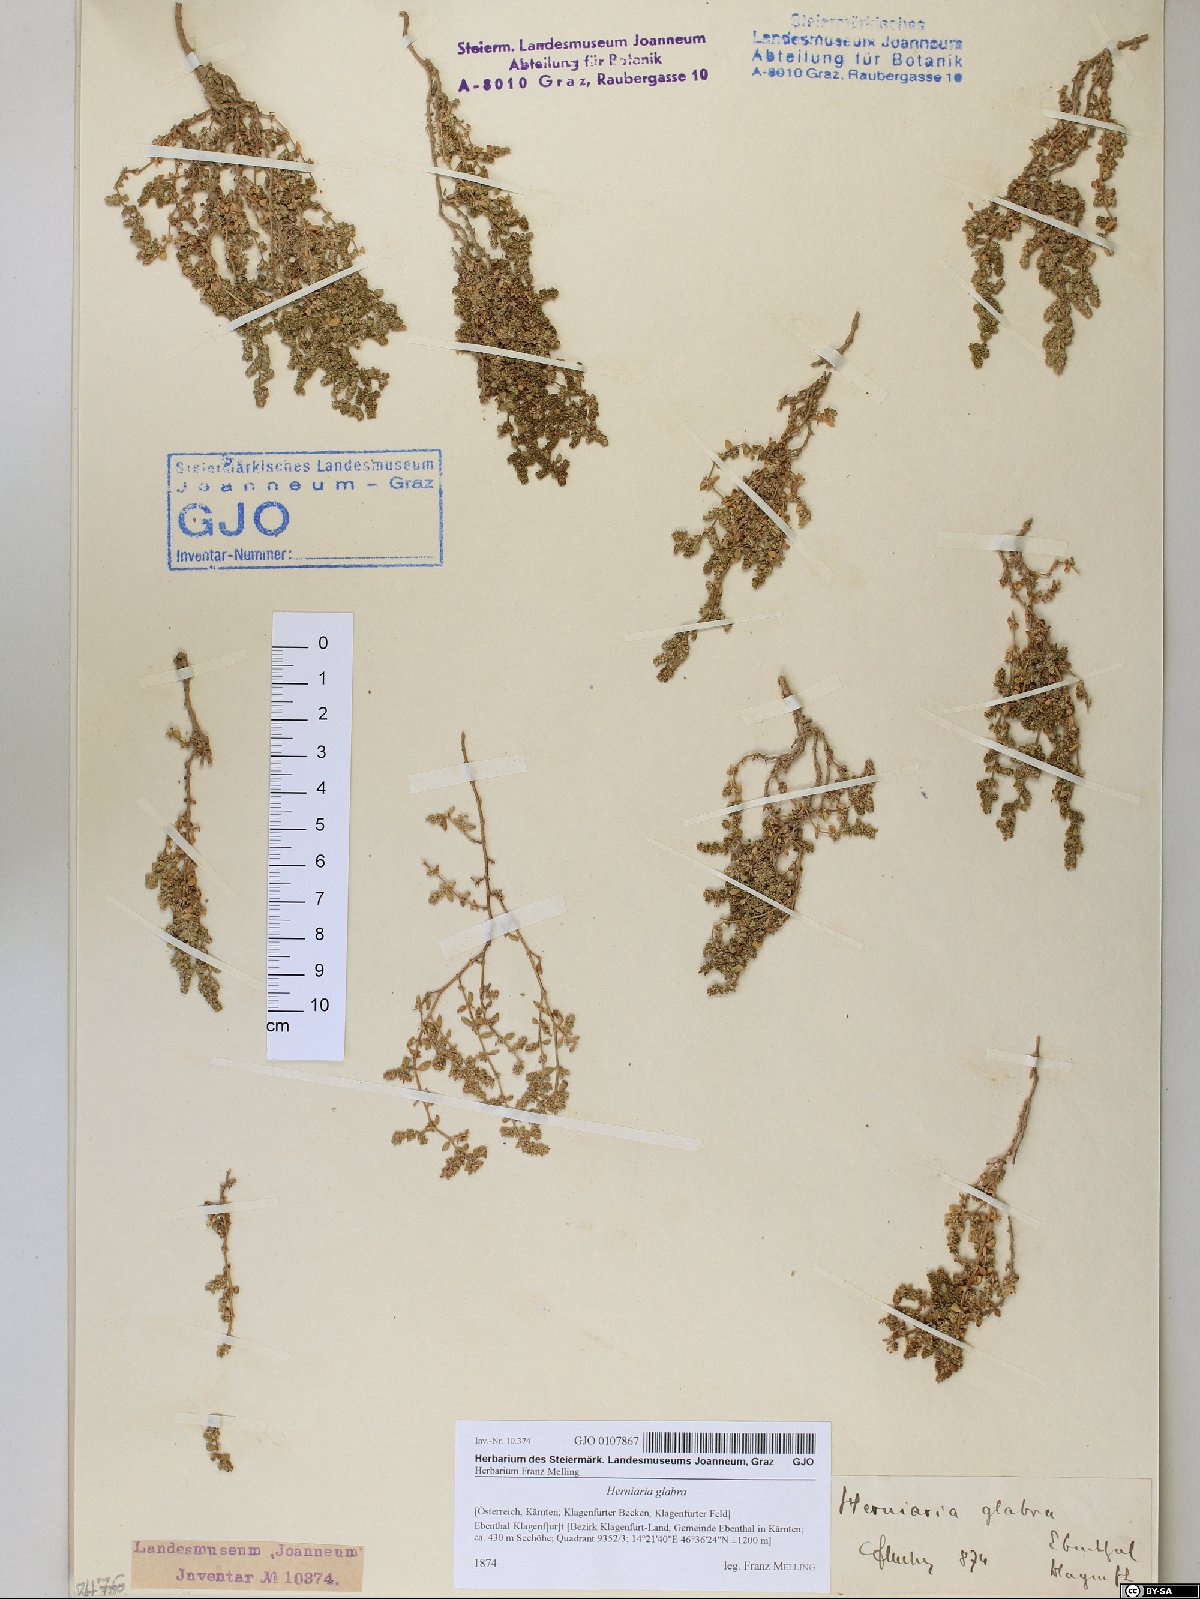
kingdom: Plantae
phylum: Tracheophyta
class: Magnoliopsida
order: Caryophyllales
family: Caryophyllaceae
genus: Herniaria
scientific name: Herniaria glabra
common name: Smooth rupturewort
